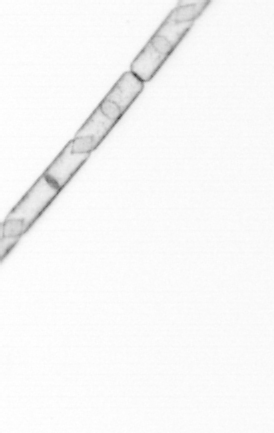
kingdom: Chromista
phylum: Ochrophyta
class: Bacillariophyceae
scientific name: Bacillariophyceae
